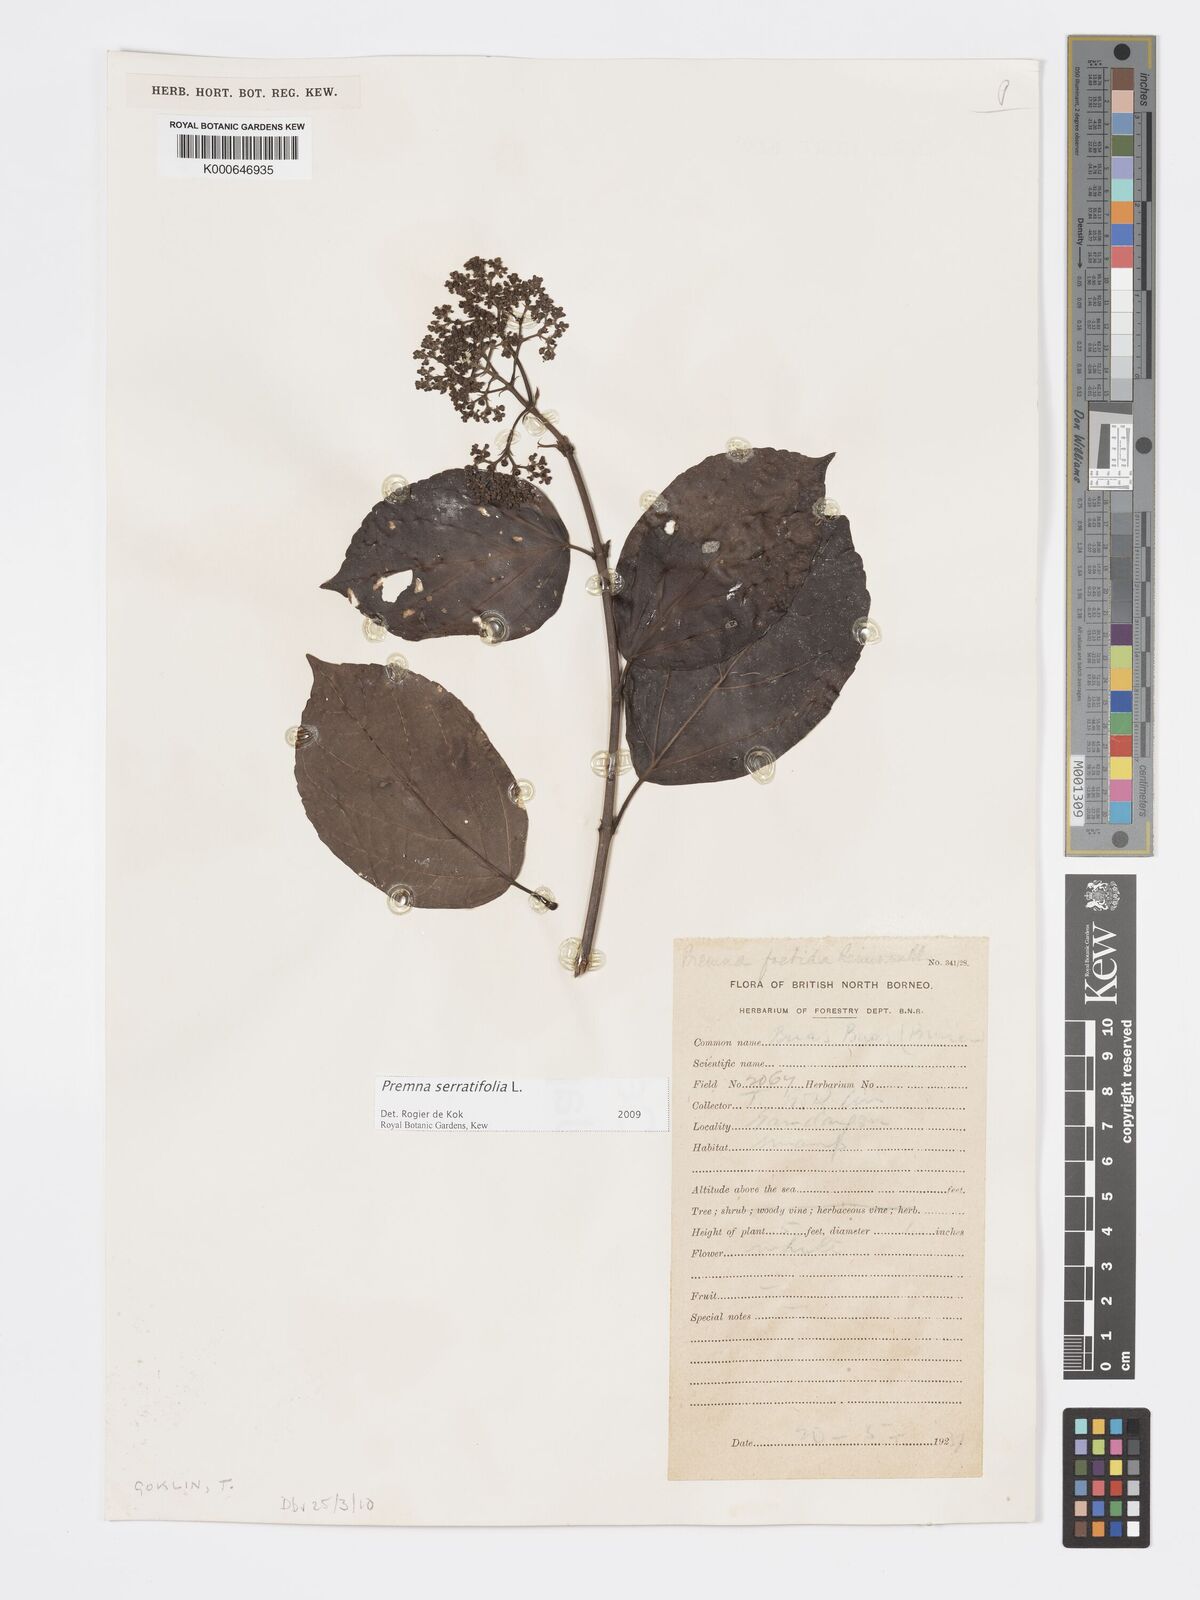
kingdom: Plantae
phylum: Tracheophyta
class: Magnoliopsida
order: Lamiales
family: Lamiaceae
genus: Premna
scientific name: Premna serratifolia
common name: Bastard guelder
